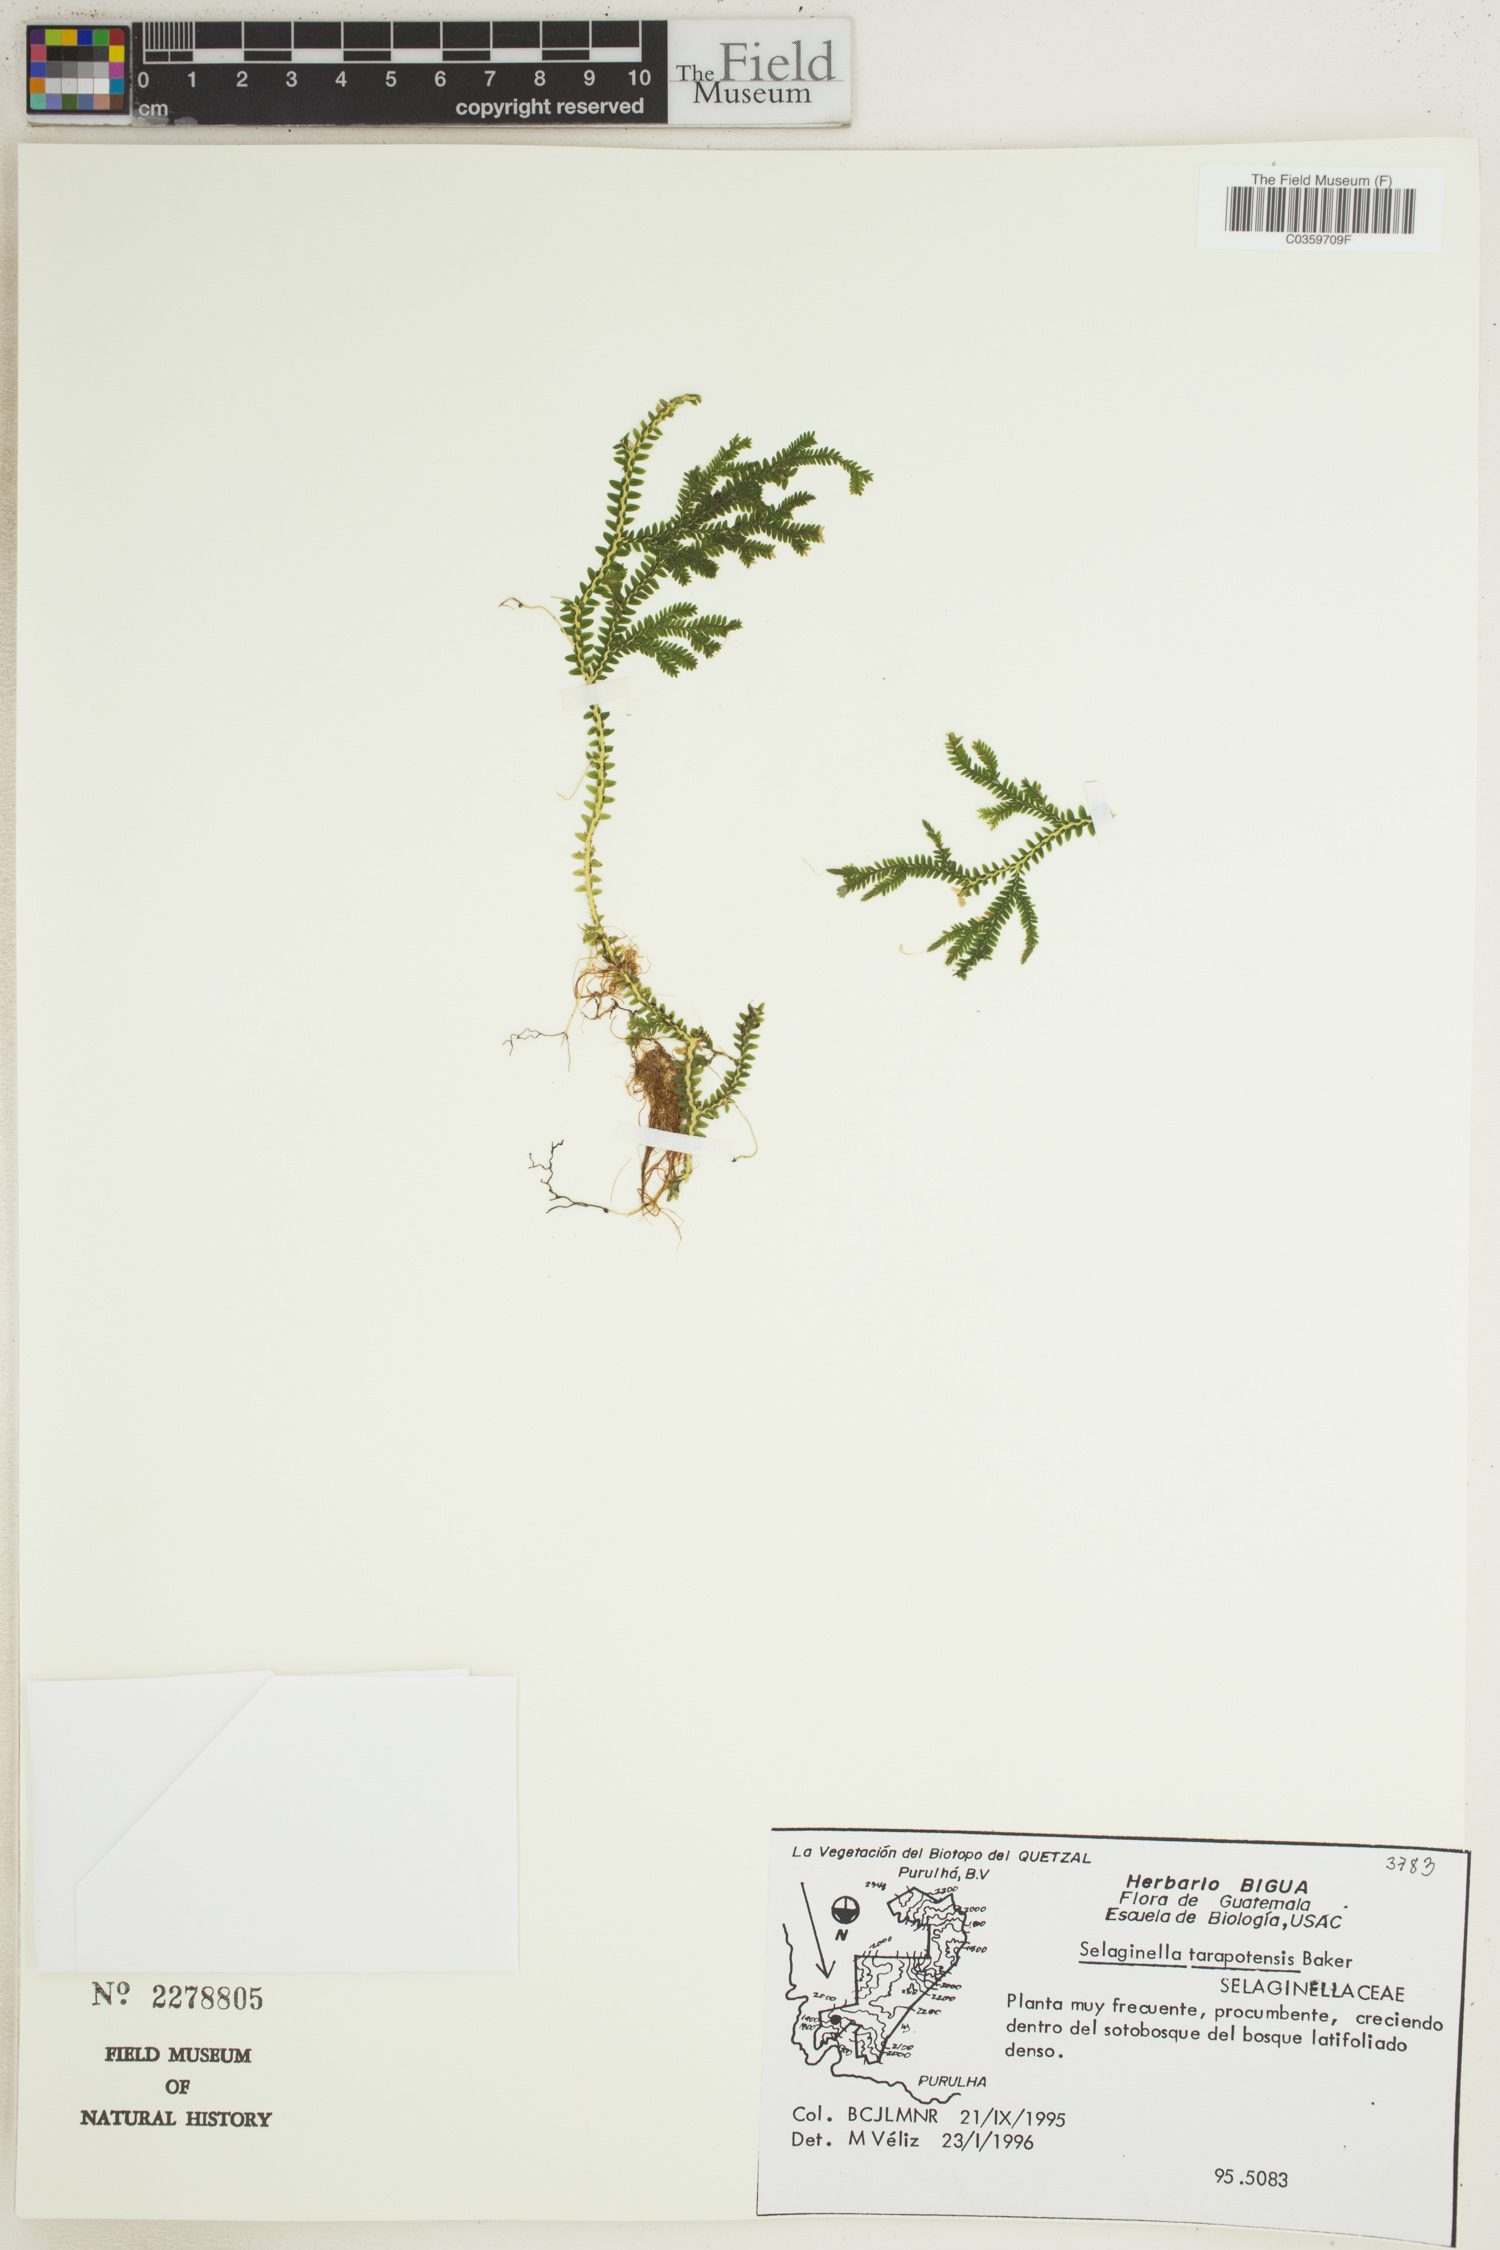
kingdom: Plantae
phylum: Tracheophyta
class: Lycopodiopsida
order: Selaginellales
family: Selaginellaceae
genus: Selaginella
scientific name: Selaginella flexuosa
